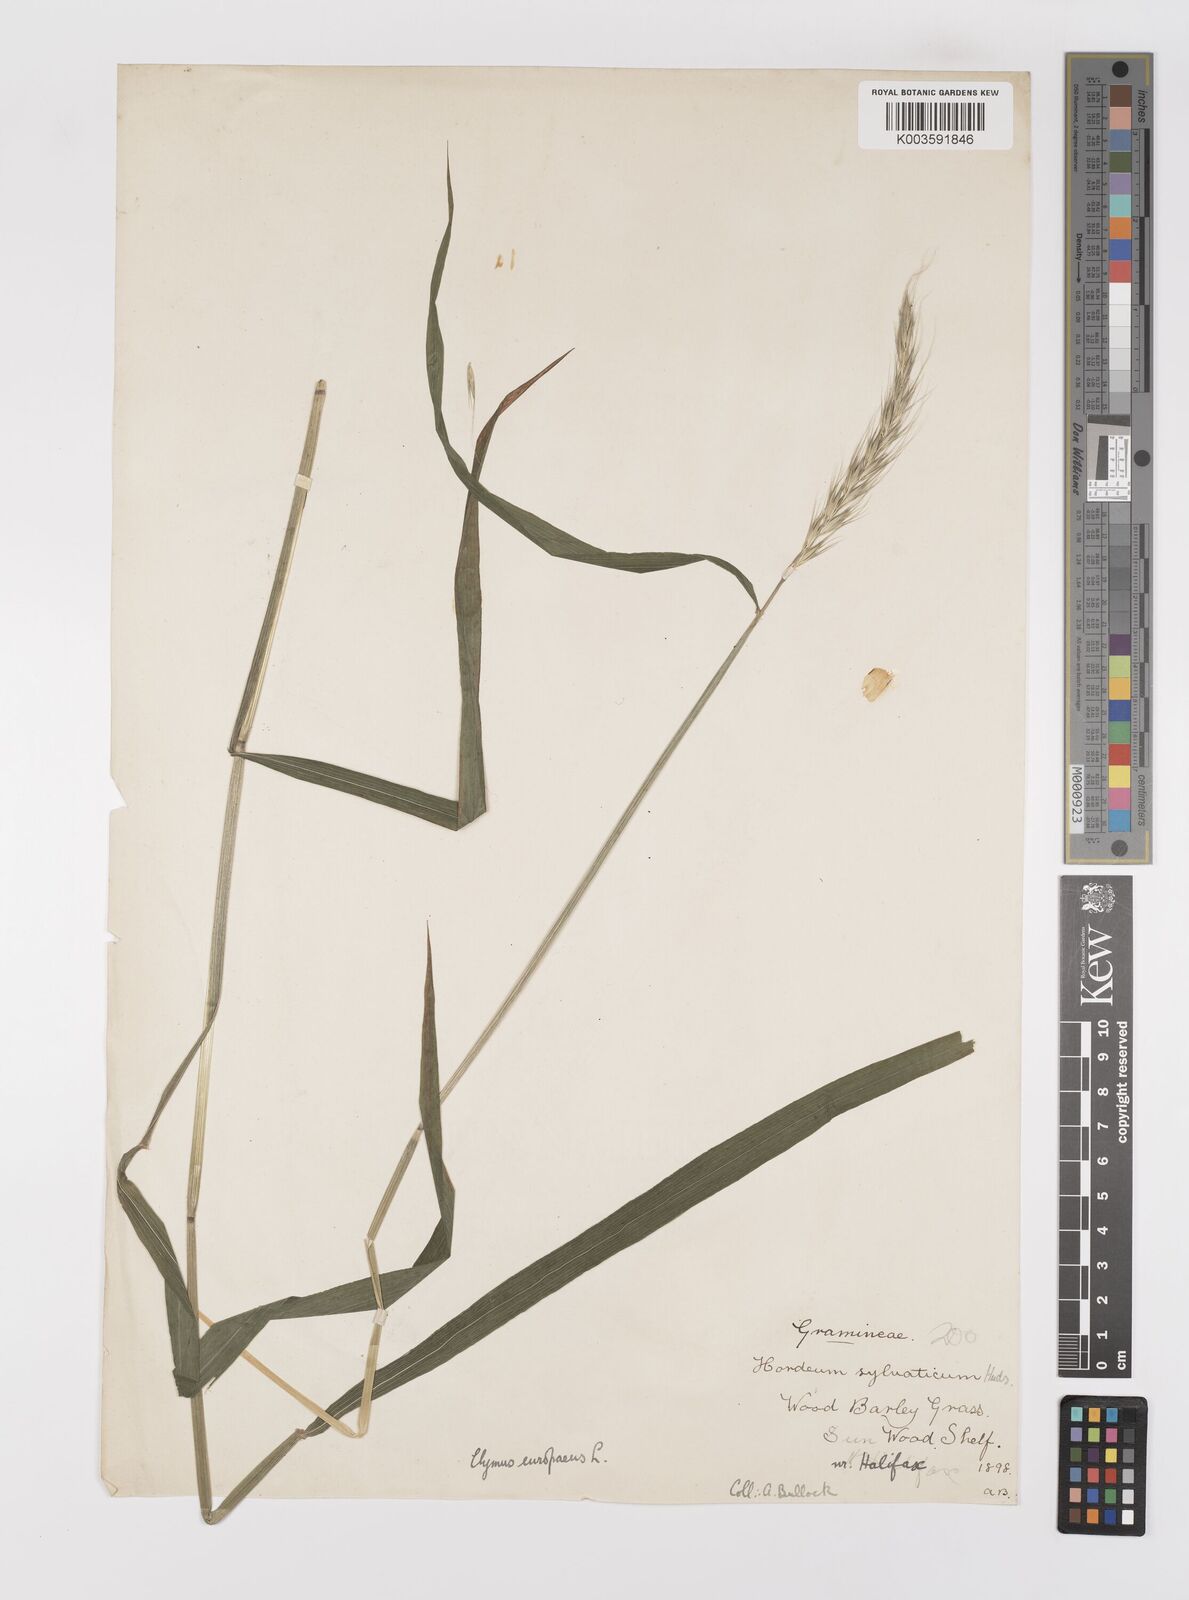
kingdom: Plantae
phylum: Tracheophyta
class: Liliopsida
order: Poales
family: Poaceae
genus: Hordelymus
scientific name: Hordelymus europaeus
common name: Wood-barley
